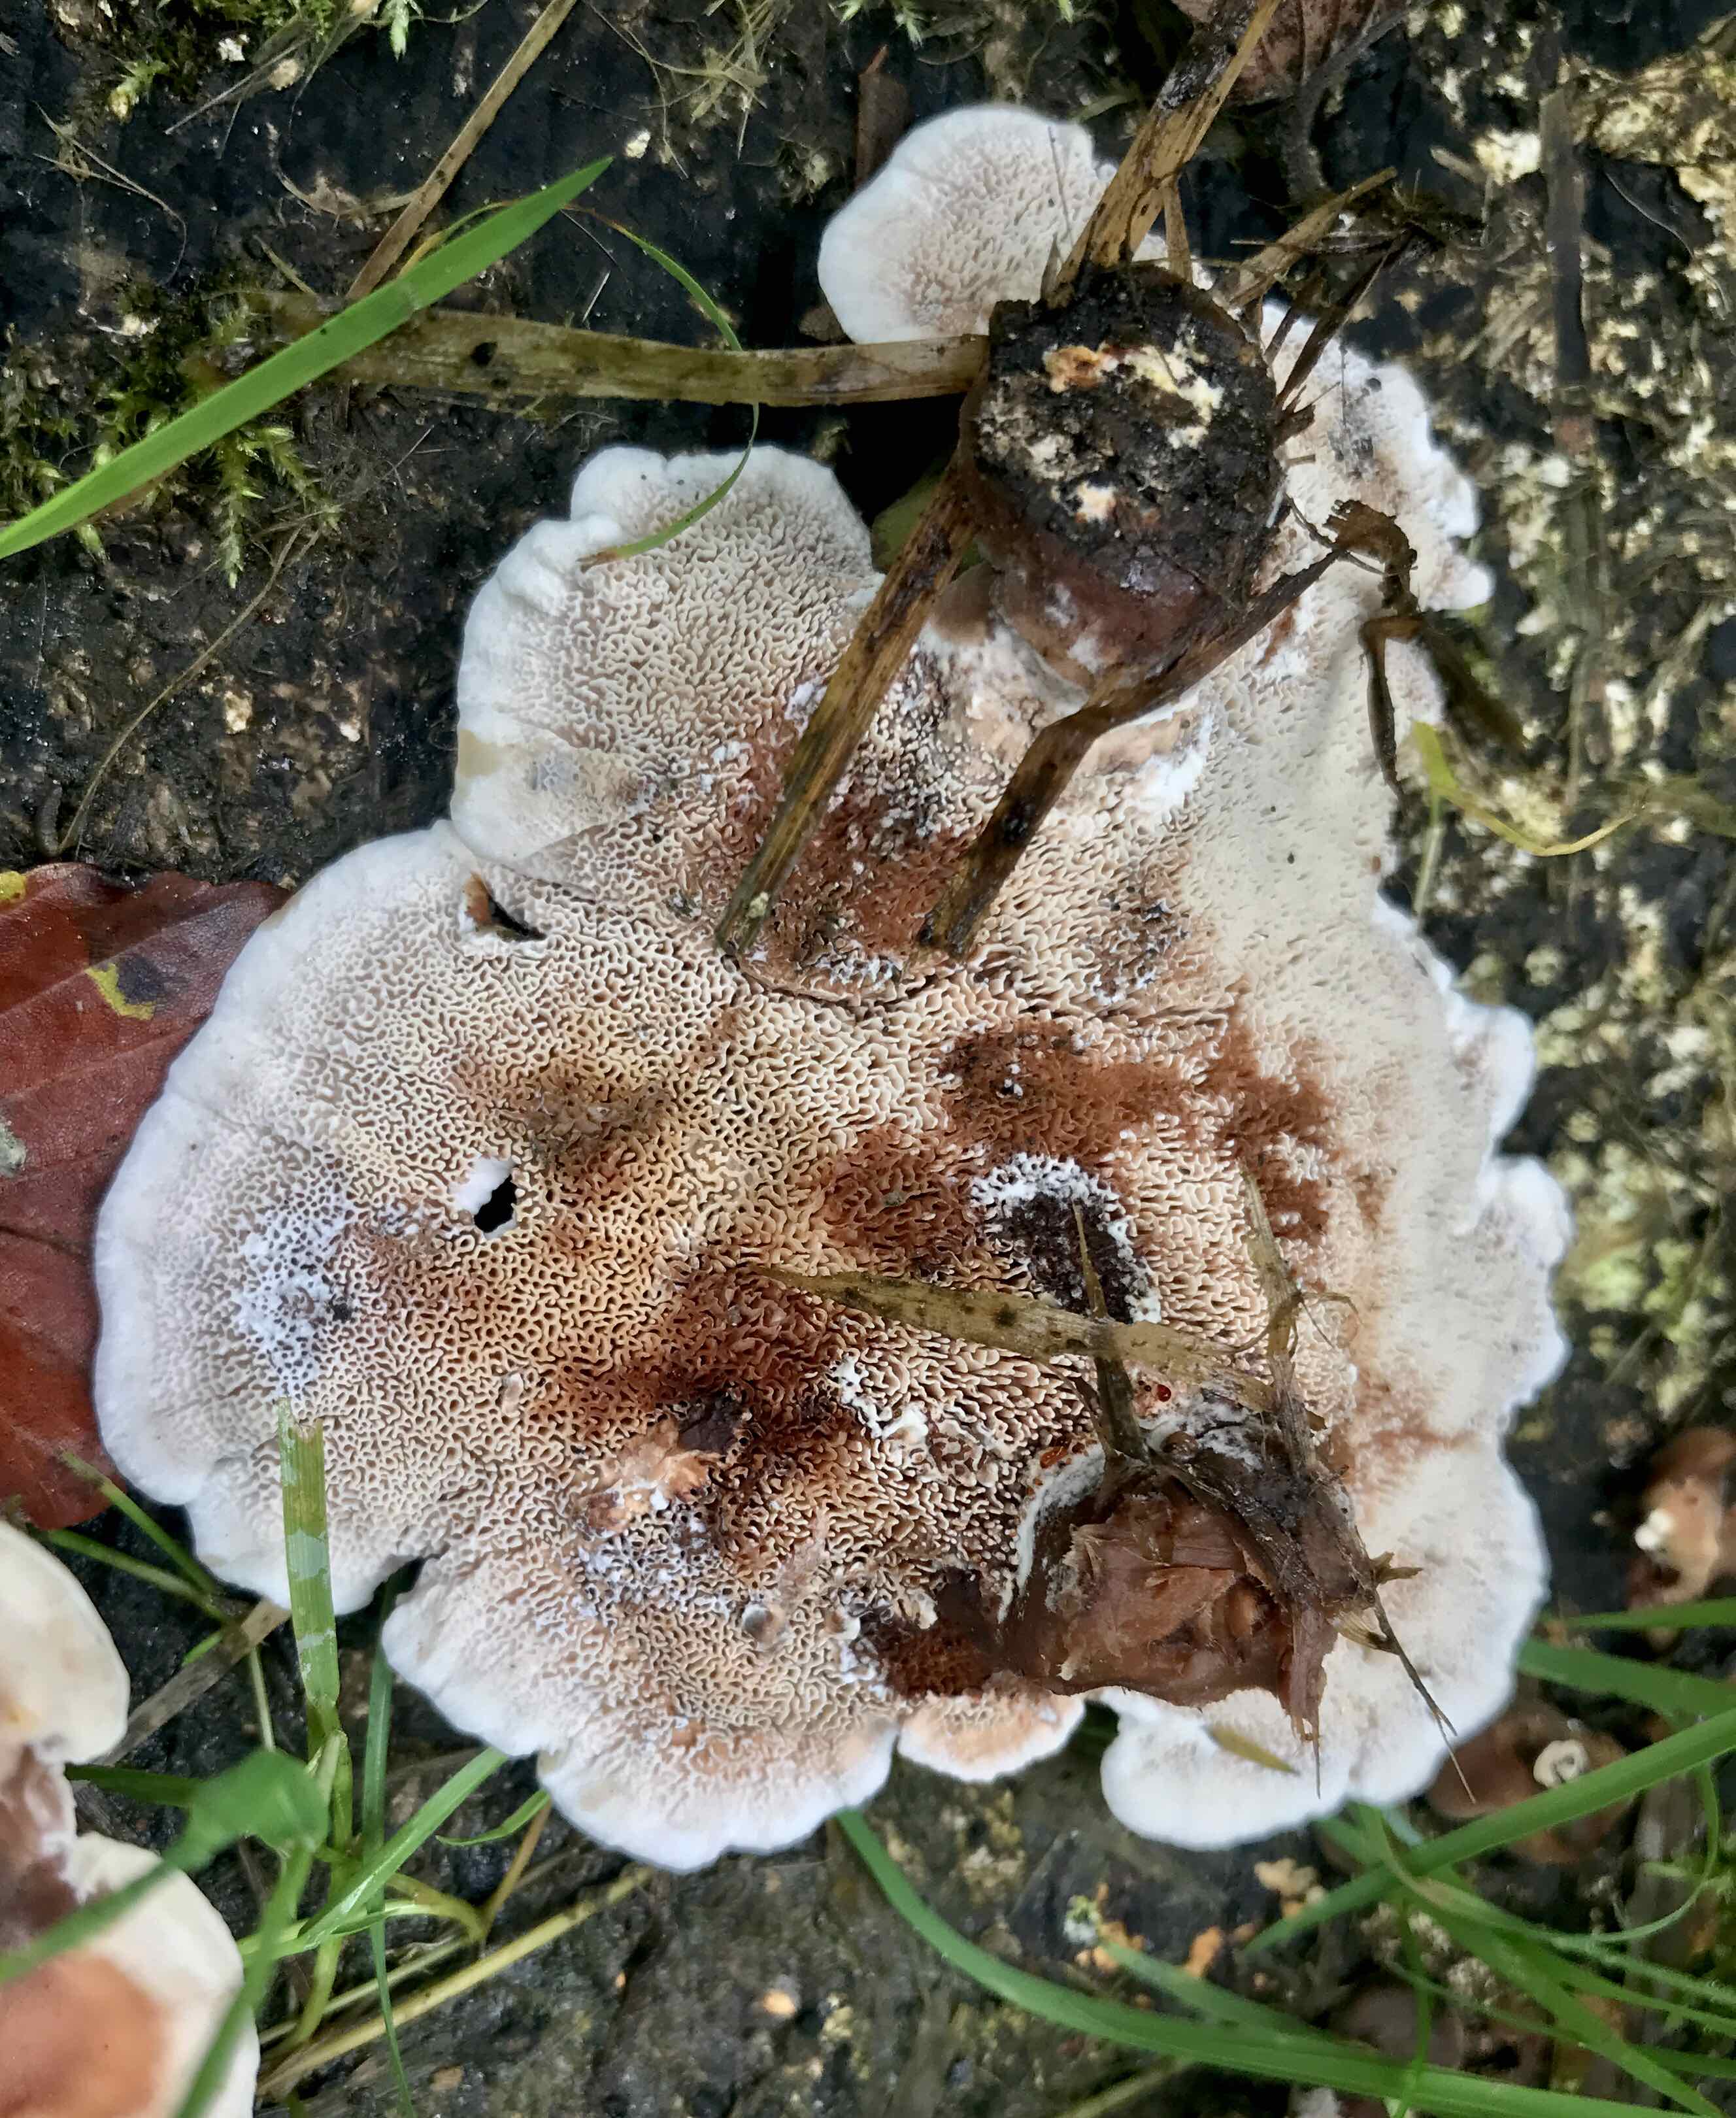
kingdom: Fungi
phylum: Basidiomycota
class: Agaricomycetes
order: Polyporales
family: Podoscyphaceae
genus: Abortiporus
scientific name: Abortiporus biennis
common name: rødmende pjalteporesvamp
